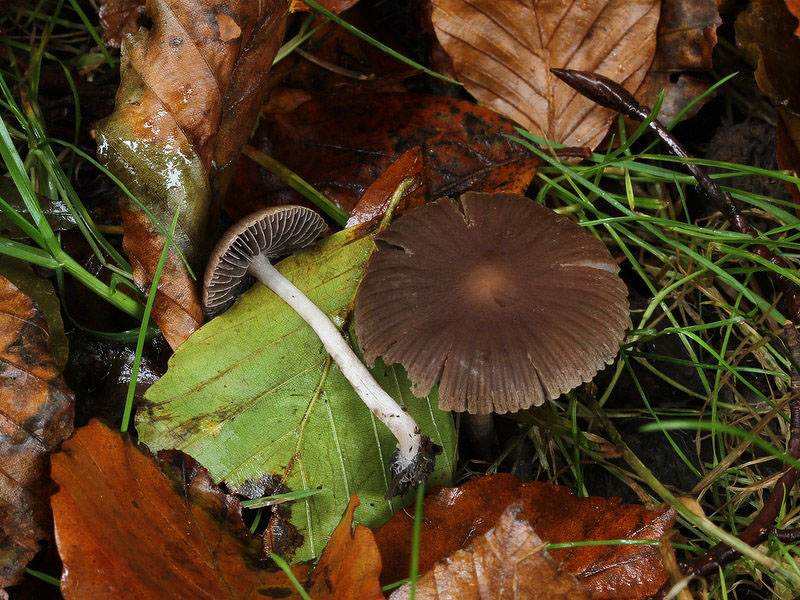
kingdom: Fungi
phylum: Basidiomycota
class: Agaricomycetes
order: Agaricales
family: Psathyrellaceae
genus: Psathyrella
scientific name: Psathyrella bipellis
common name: vinrød mørkhat
